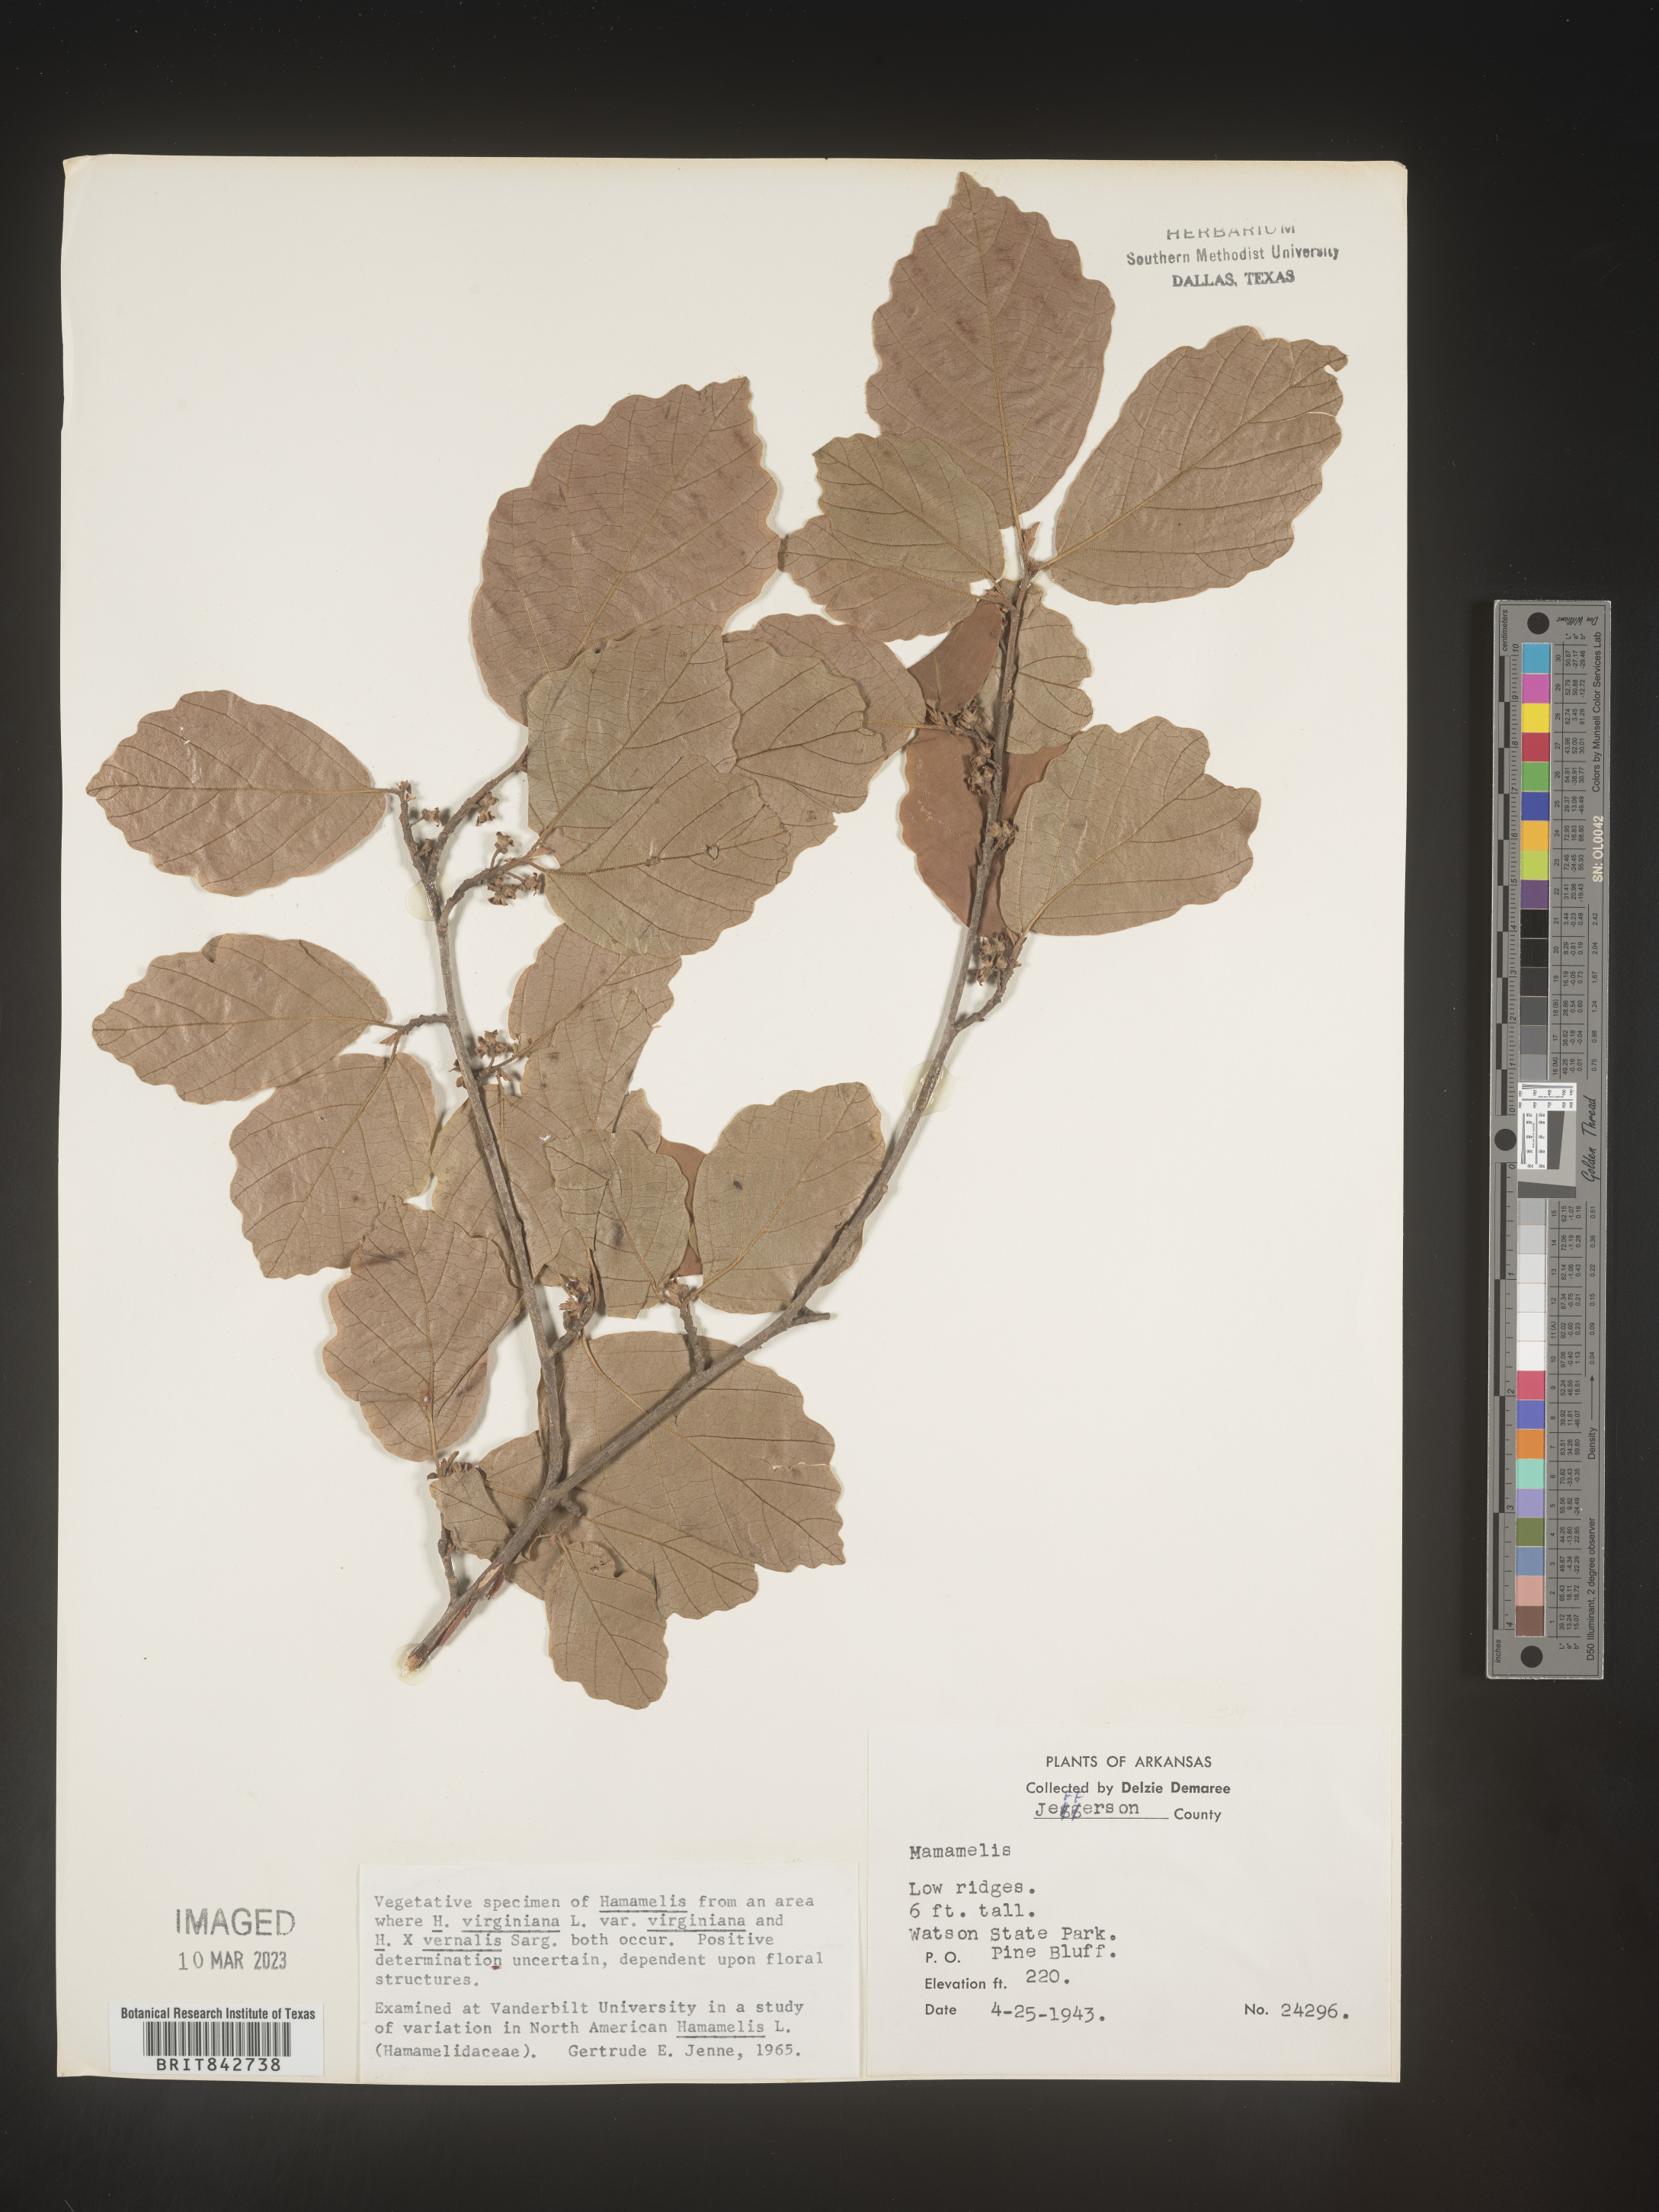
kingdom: Plantae
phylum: Tracheophyta
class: Magnoliopsida
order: Saxifragales
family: Hamamelidaceae
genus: Hamamelis
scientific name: Hamamelis virginiana
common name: Witch-hazel
